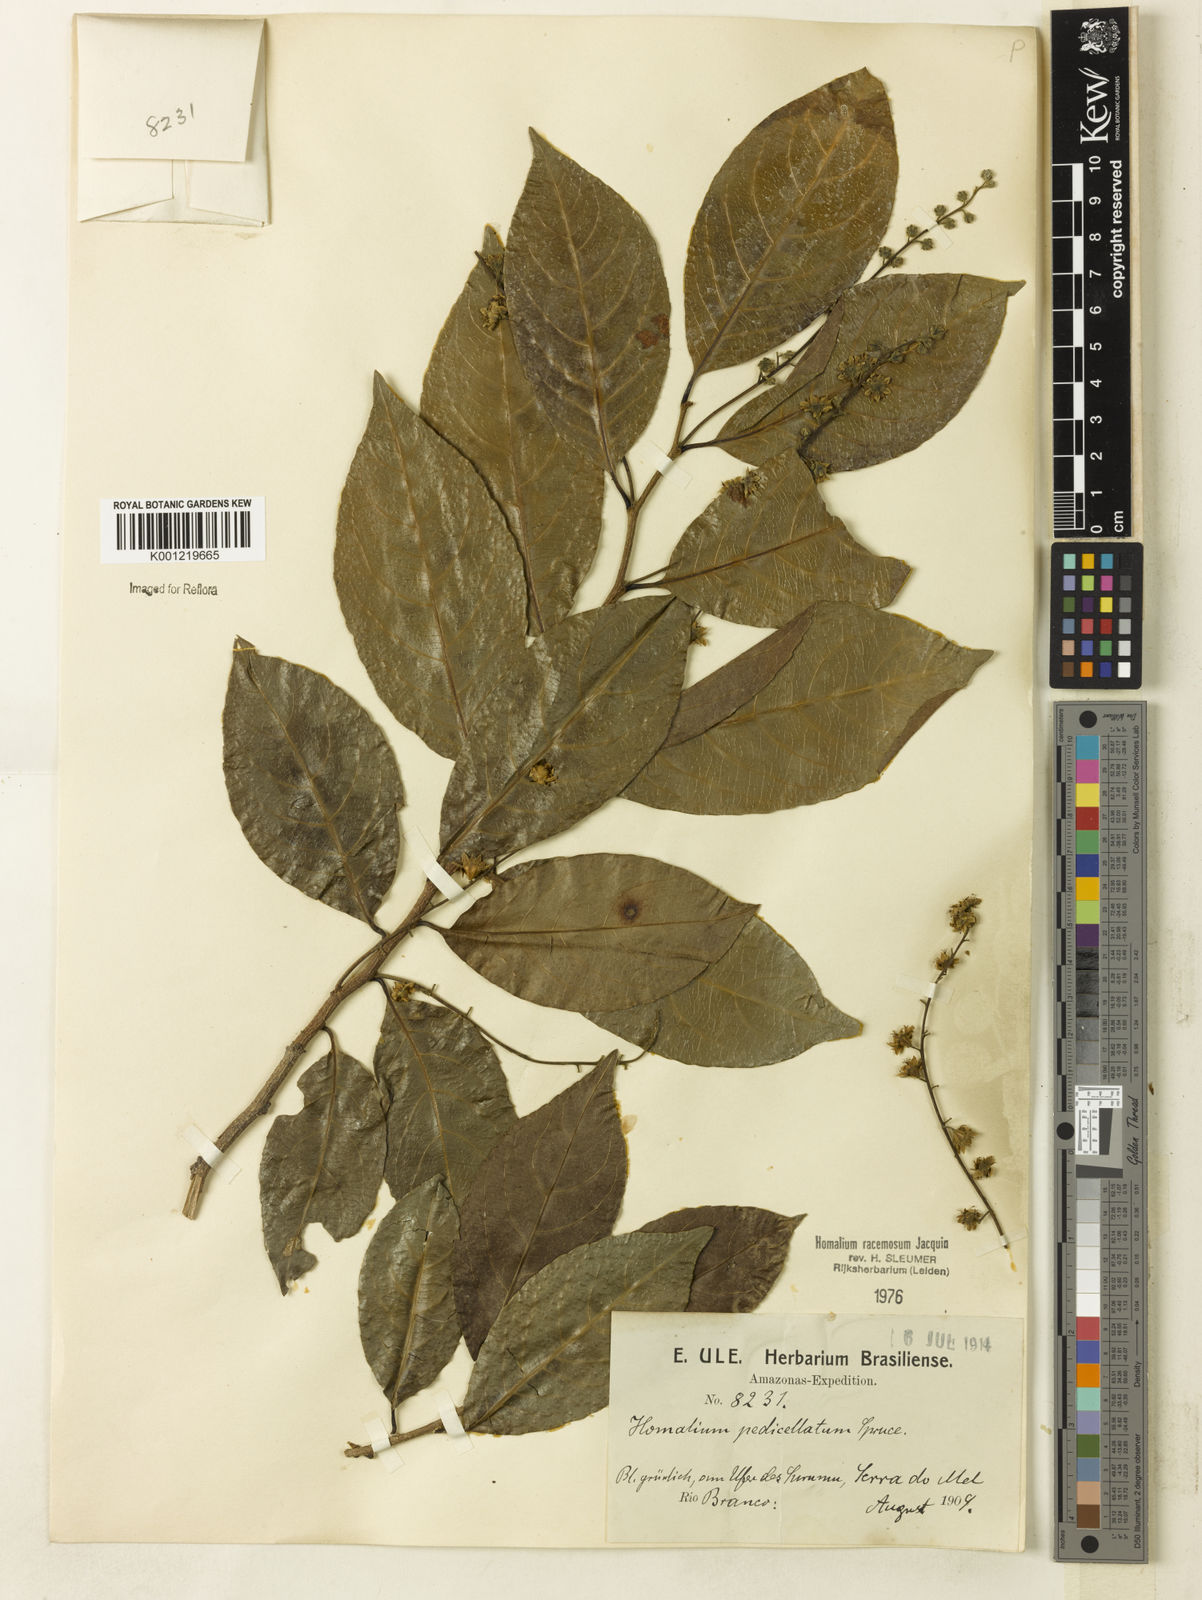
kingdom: Plantae
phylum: Tracheophyta
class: Magnoliopsida
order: Malpighiales
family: Salicaceae
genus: Homalium
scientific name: Homalium racemosum
